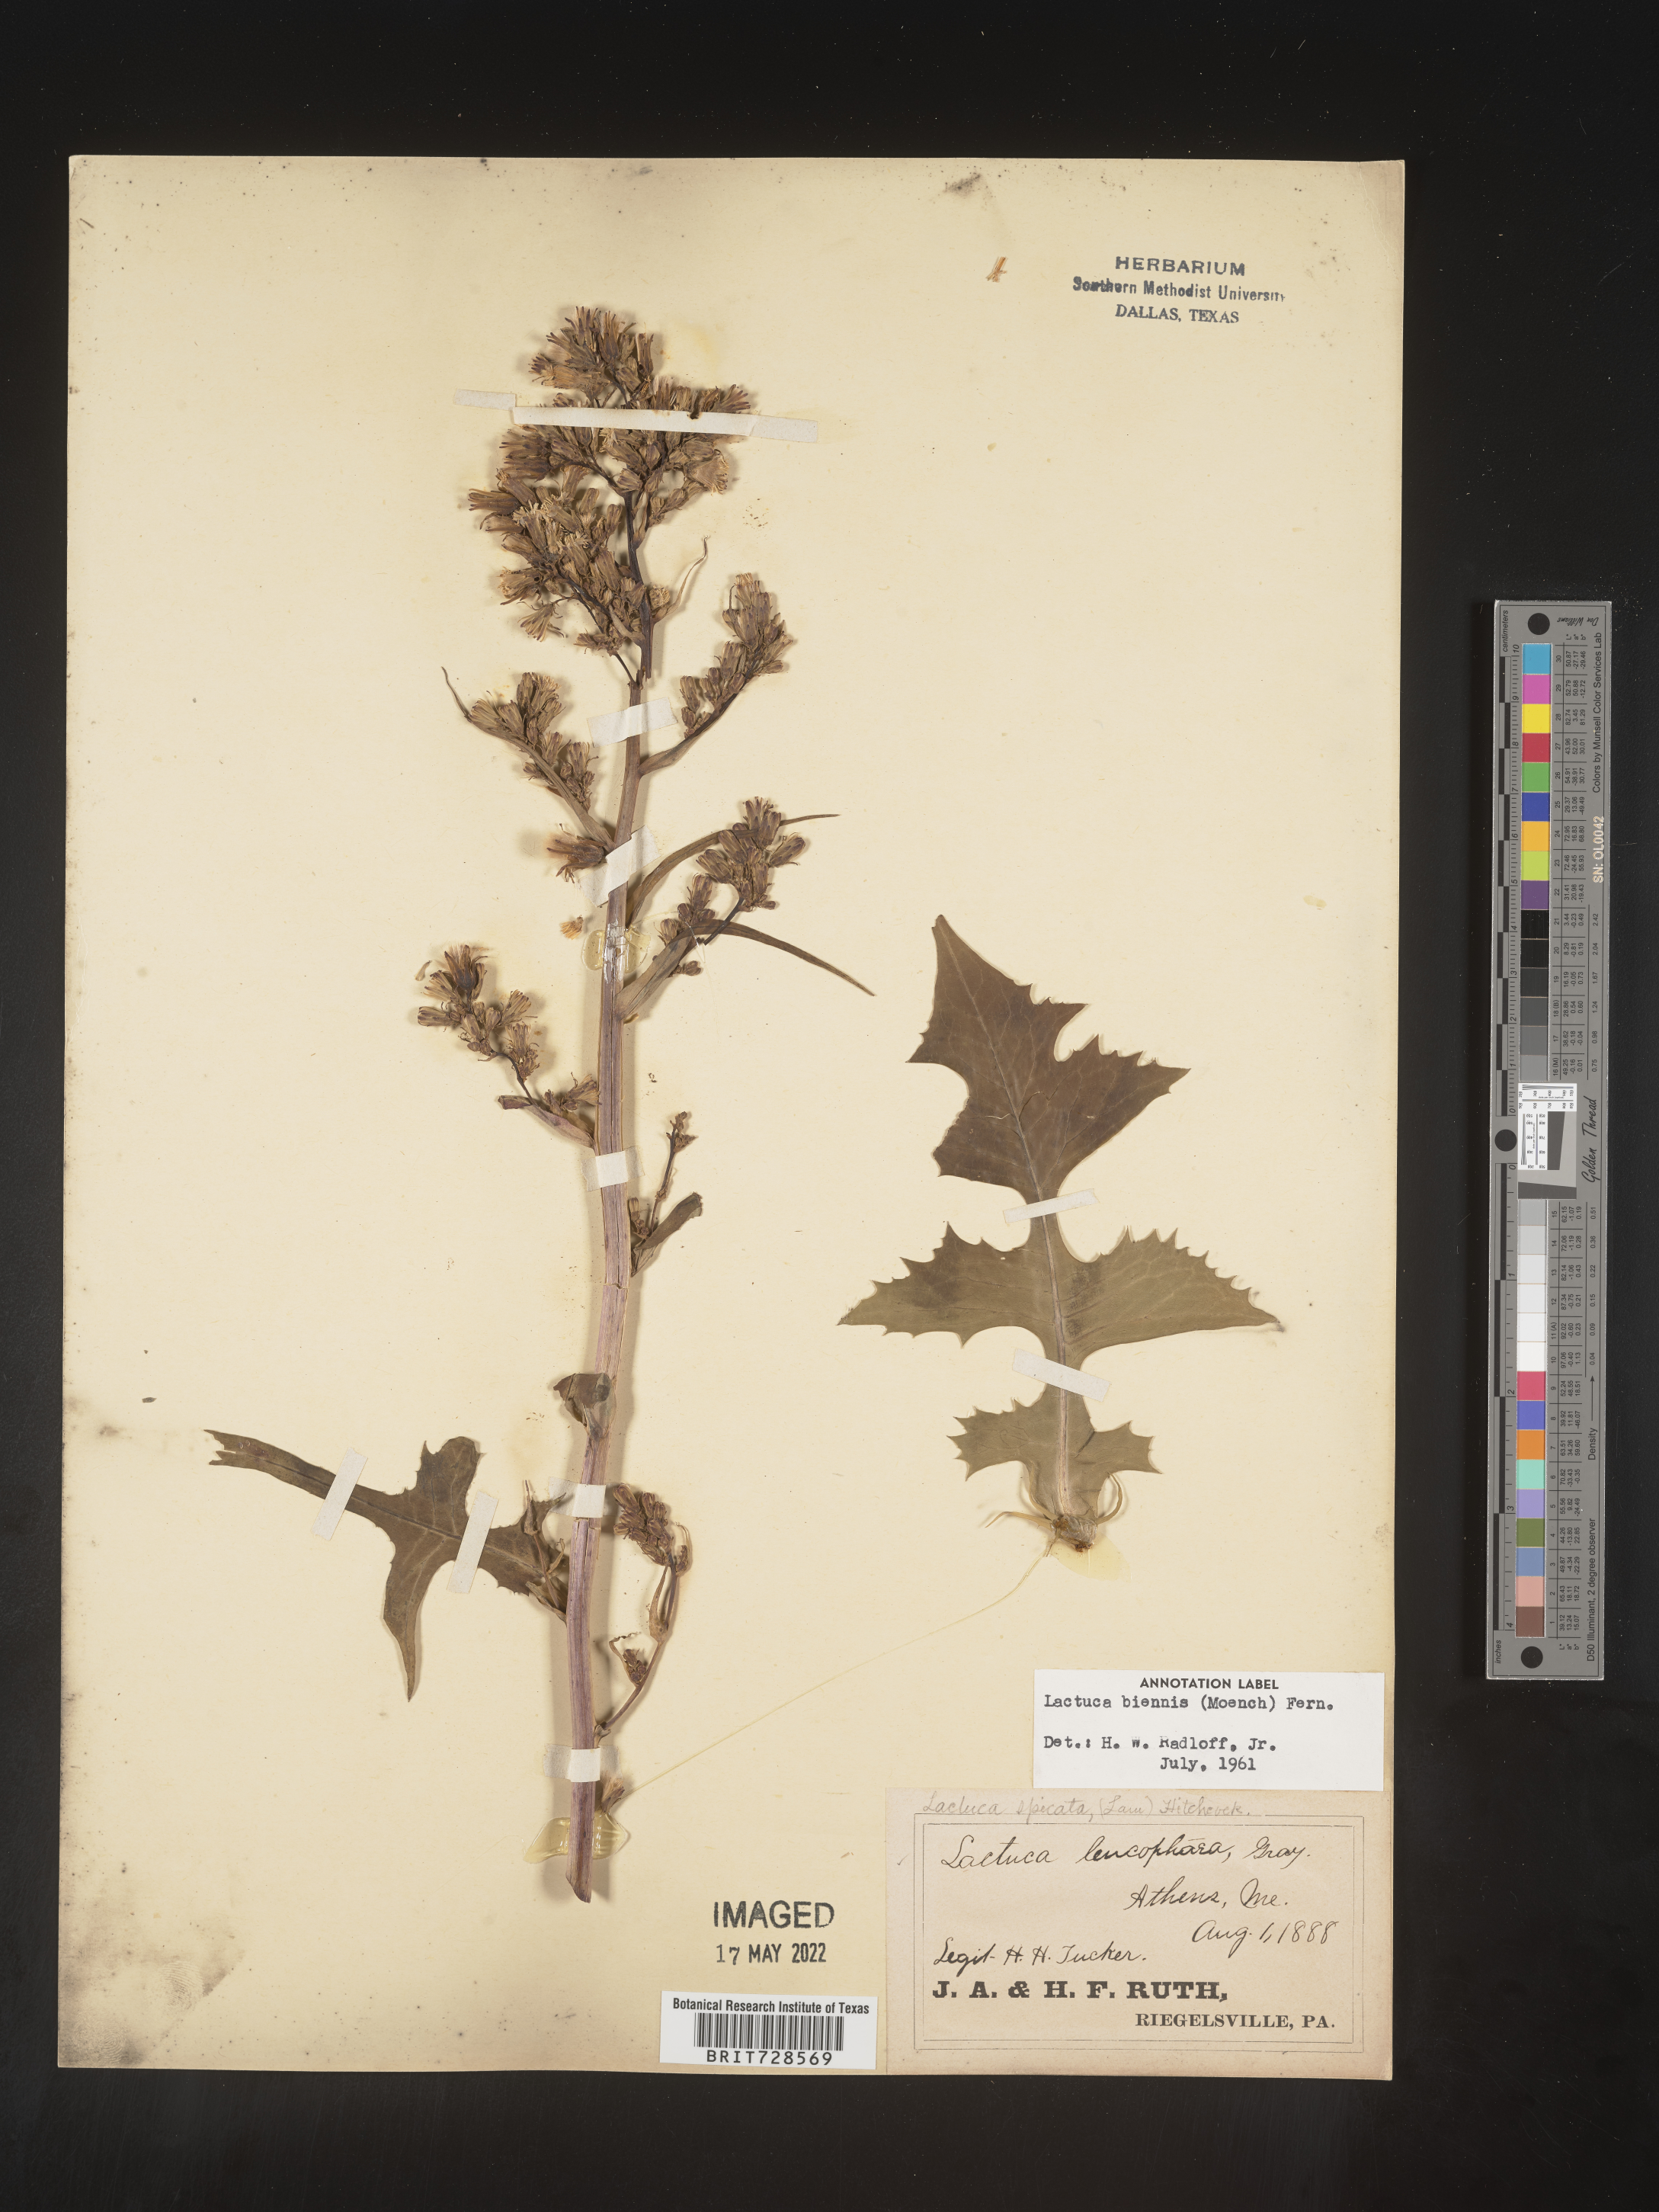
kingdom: Plantae
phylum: Tracheophyta
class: Magnoliopsida
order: Asterales
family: Asteraceae
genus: Lactuca
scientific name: Lactuca biennis
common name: Blue wood lettuce
